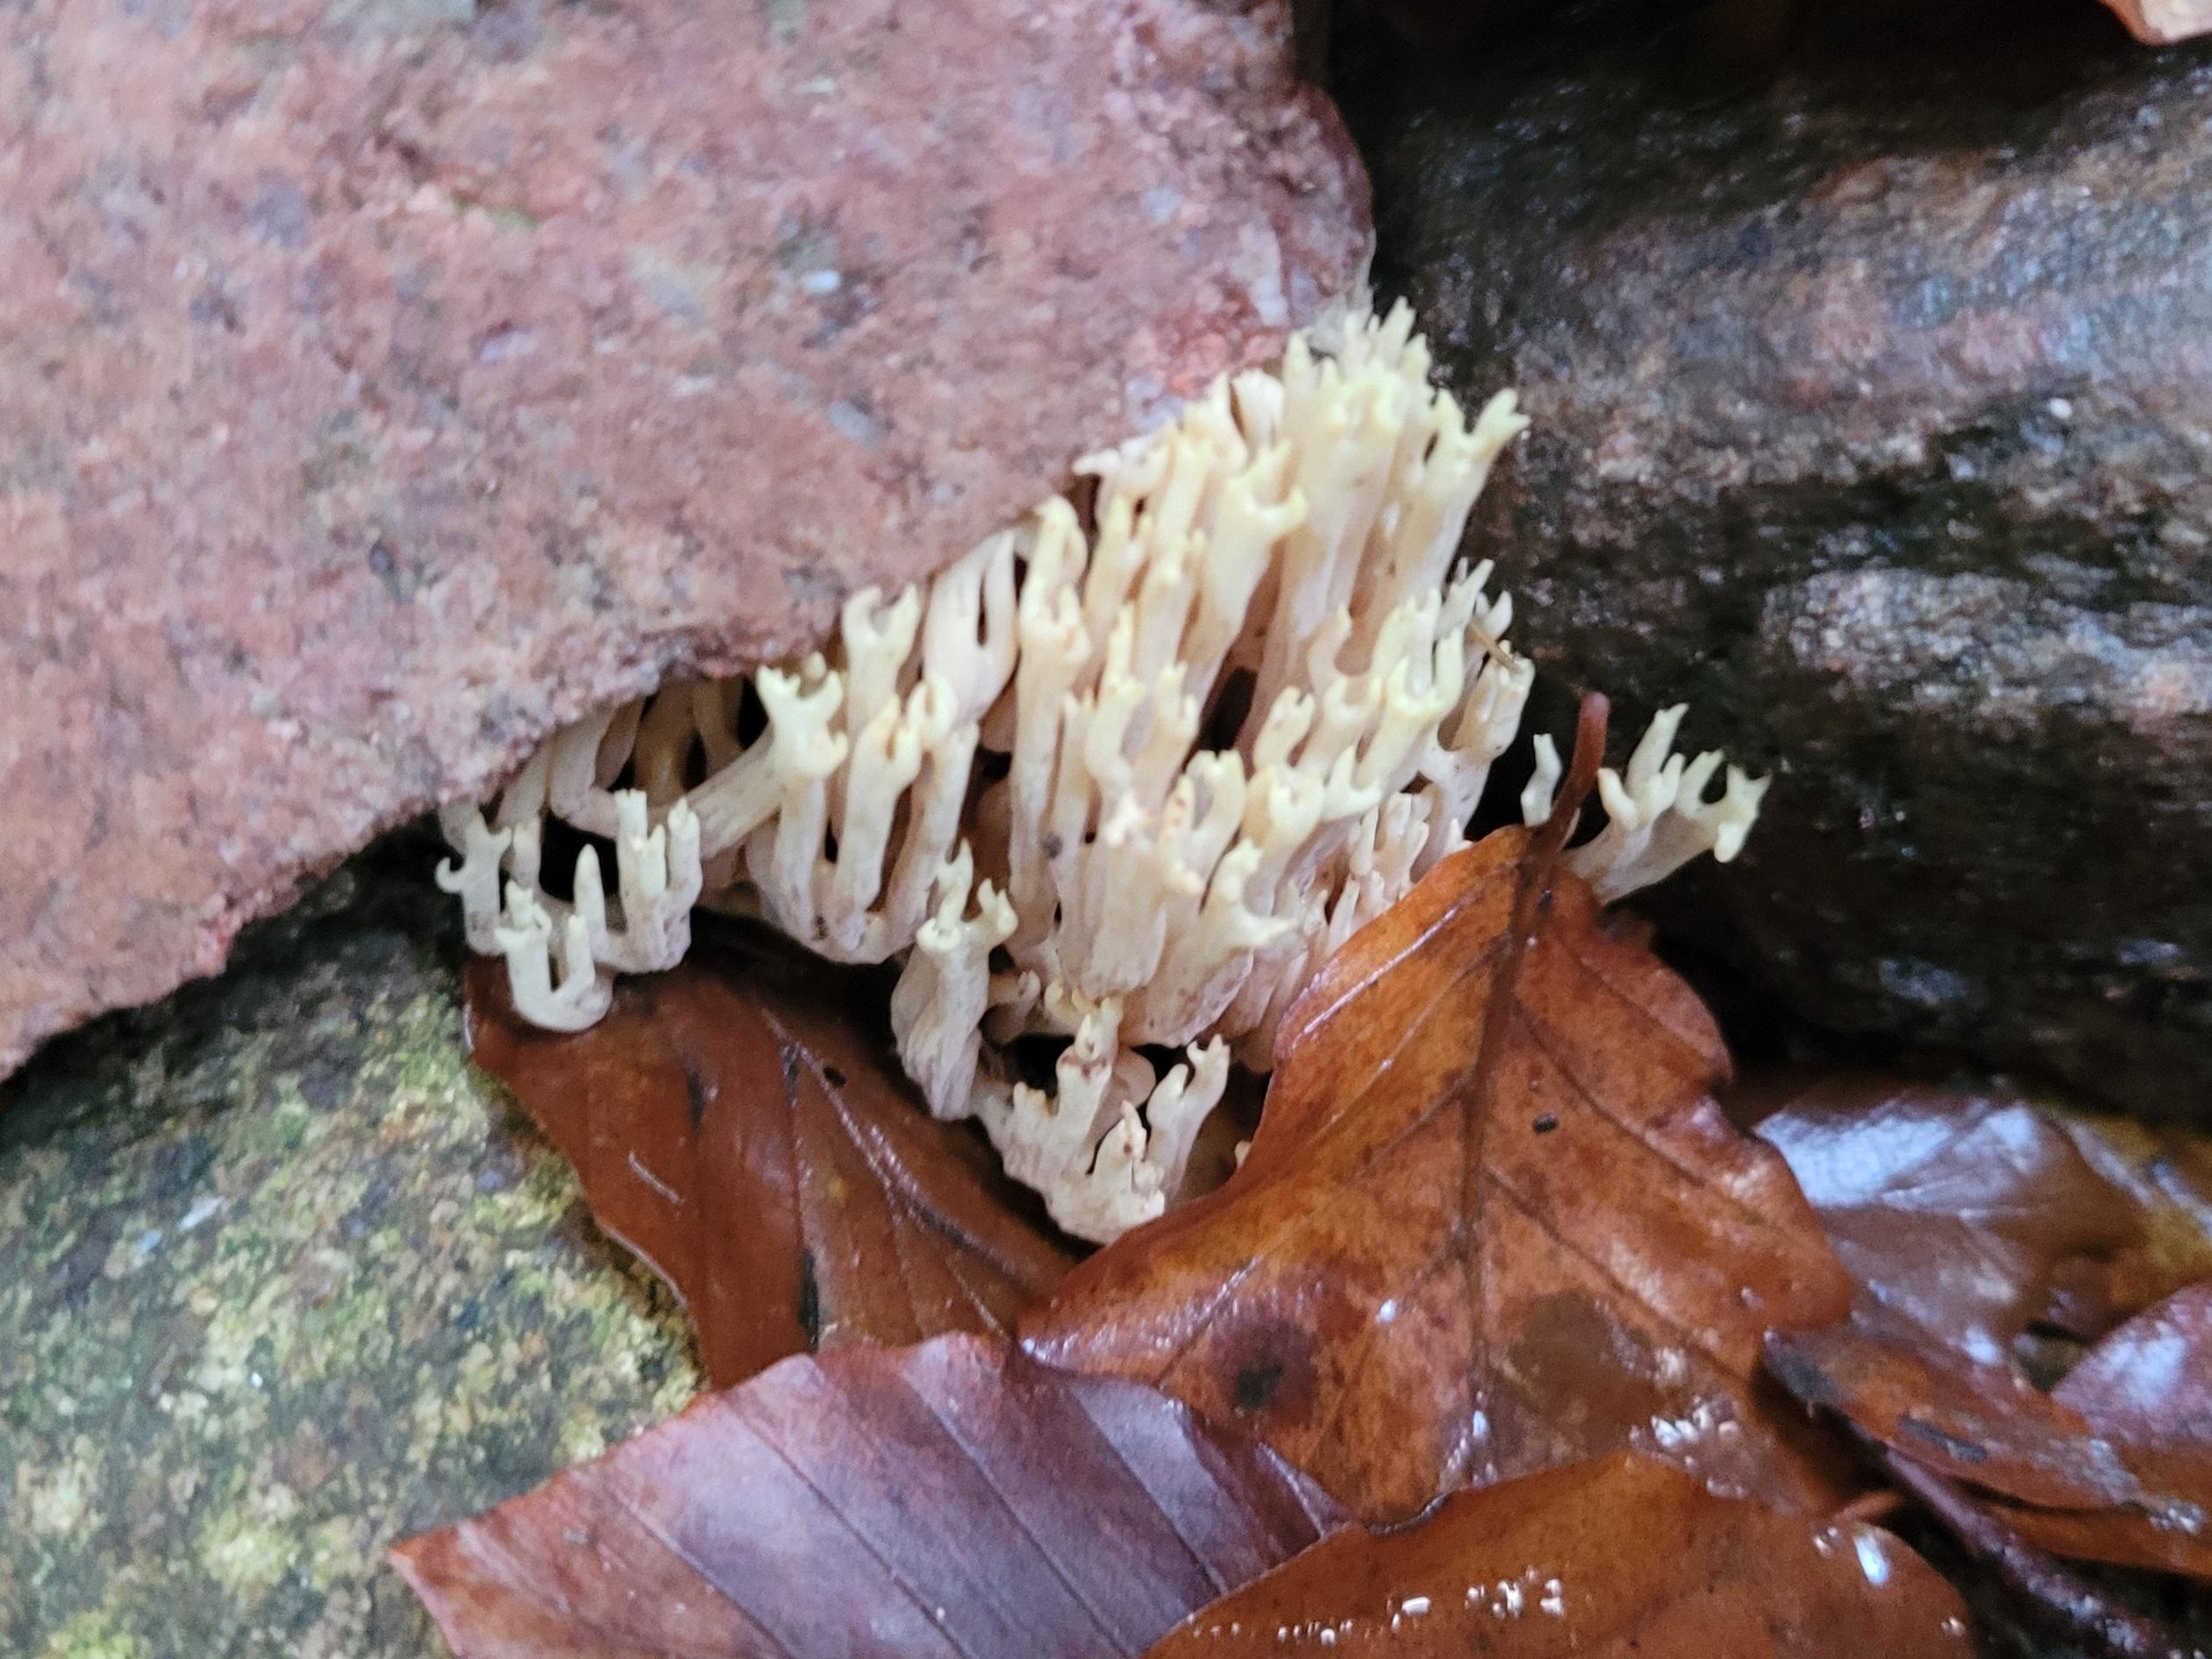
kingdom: Fungi
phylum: Basidiomycota
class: Agaricomycetes
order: Gomphales
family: Gomphaceae
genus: Ramaria
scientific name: Ramaria stricta
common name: rank koralsvamp
